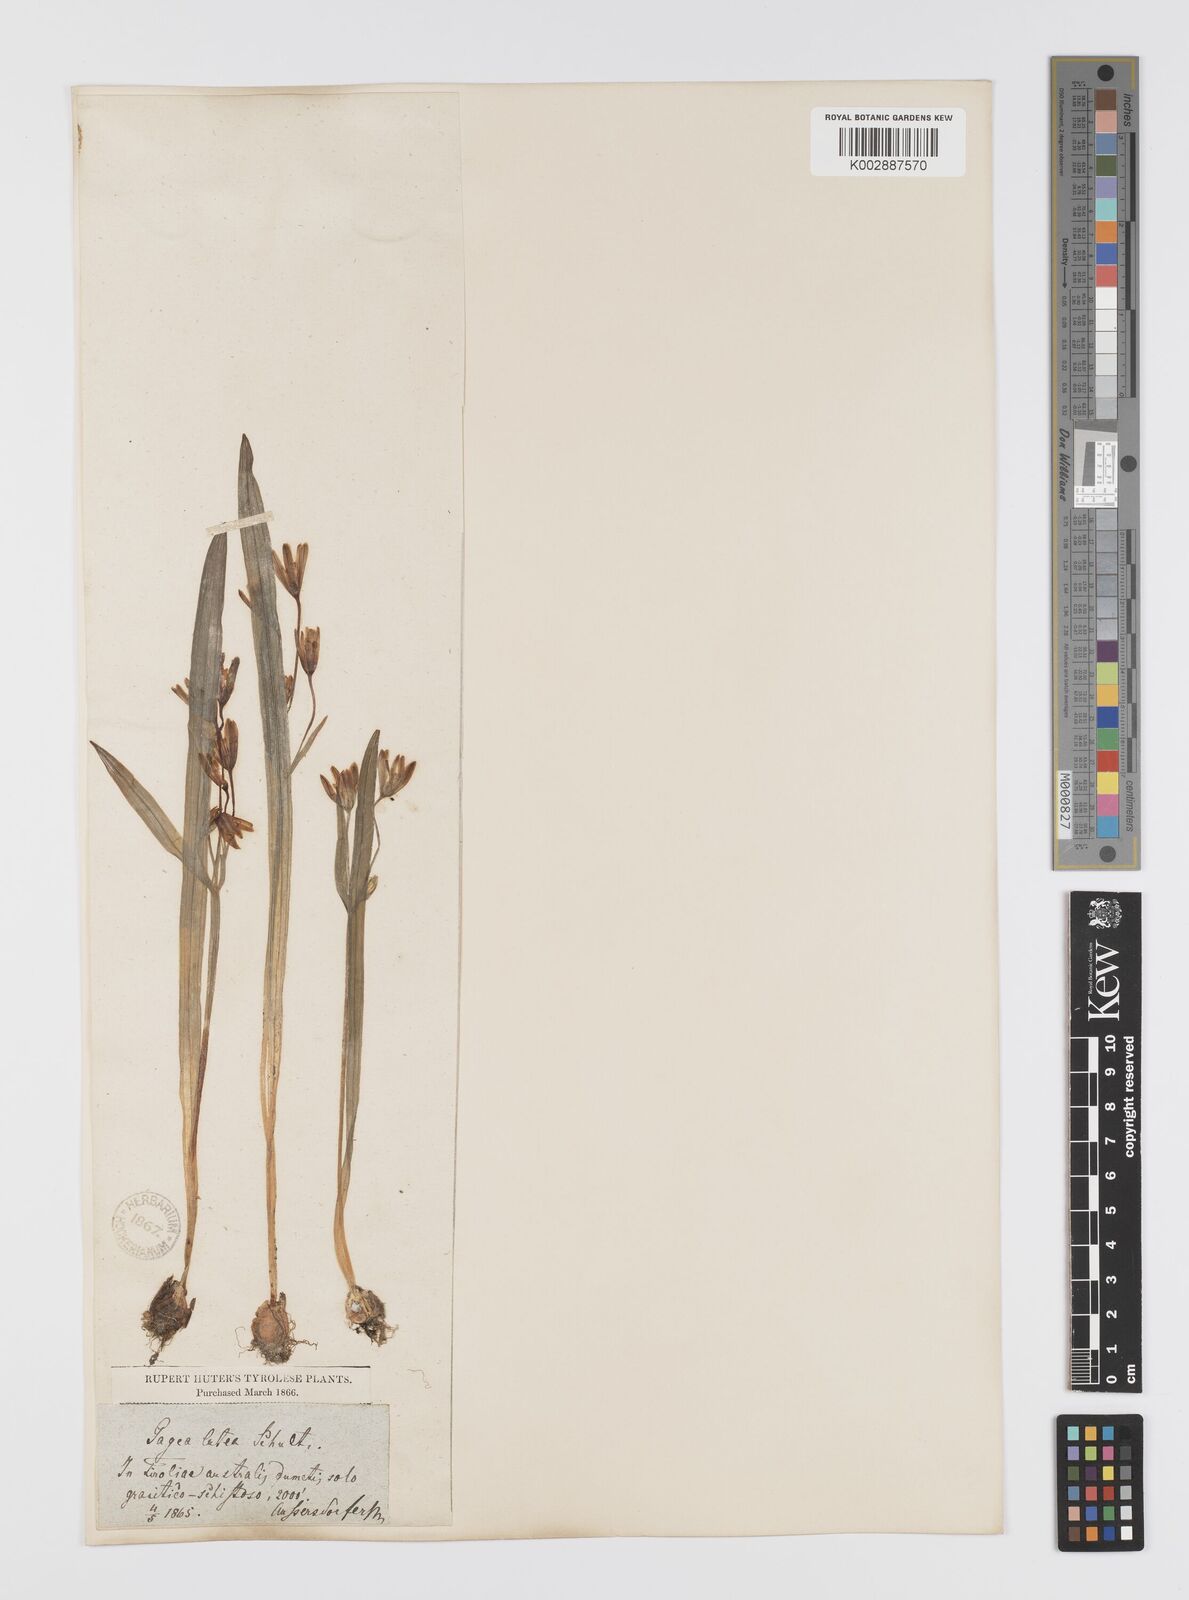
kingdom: Plantae
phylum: Tracheophyta
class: Liliopsida
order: Liliales
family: Liliaceae
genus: Gagea
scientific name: Gagea lutea
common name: Yellow star-of-bethlehem
